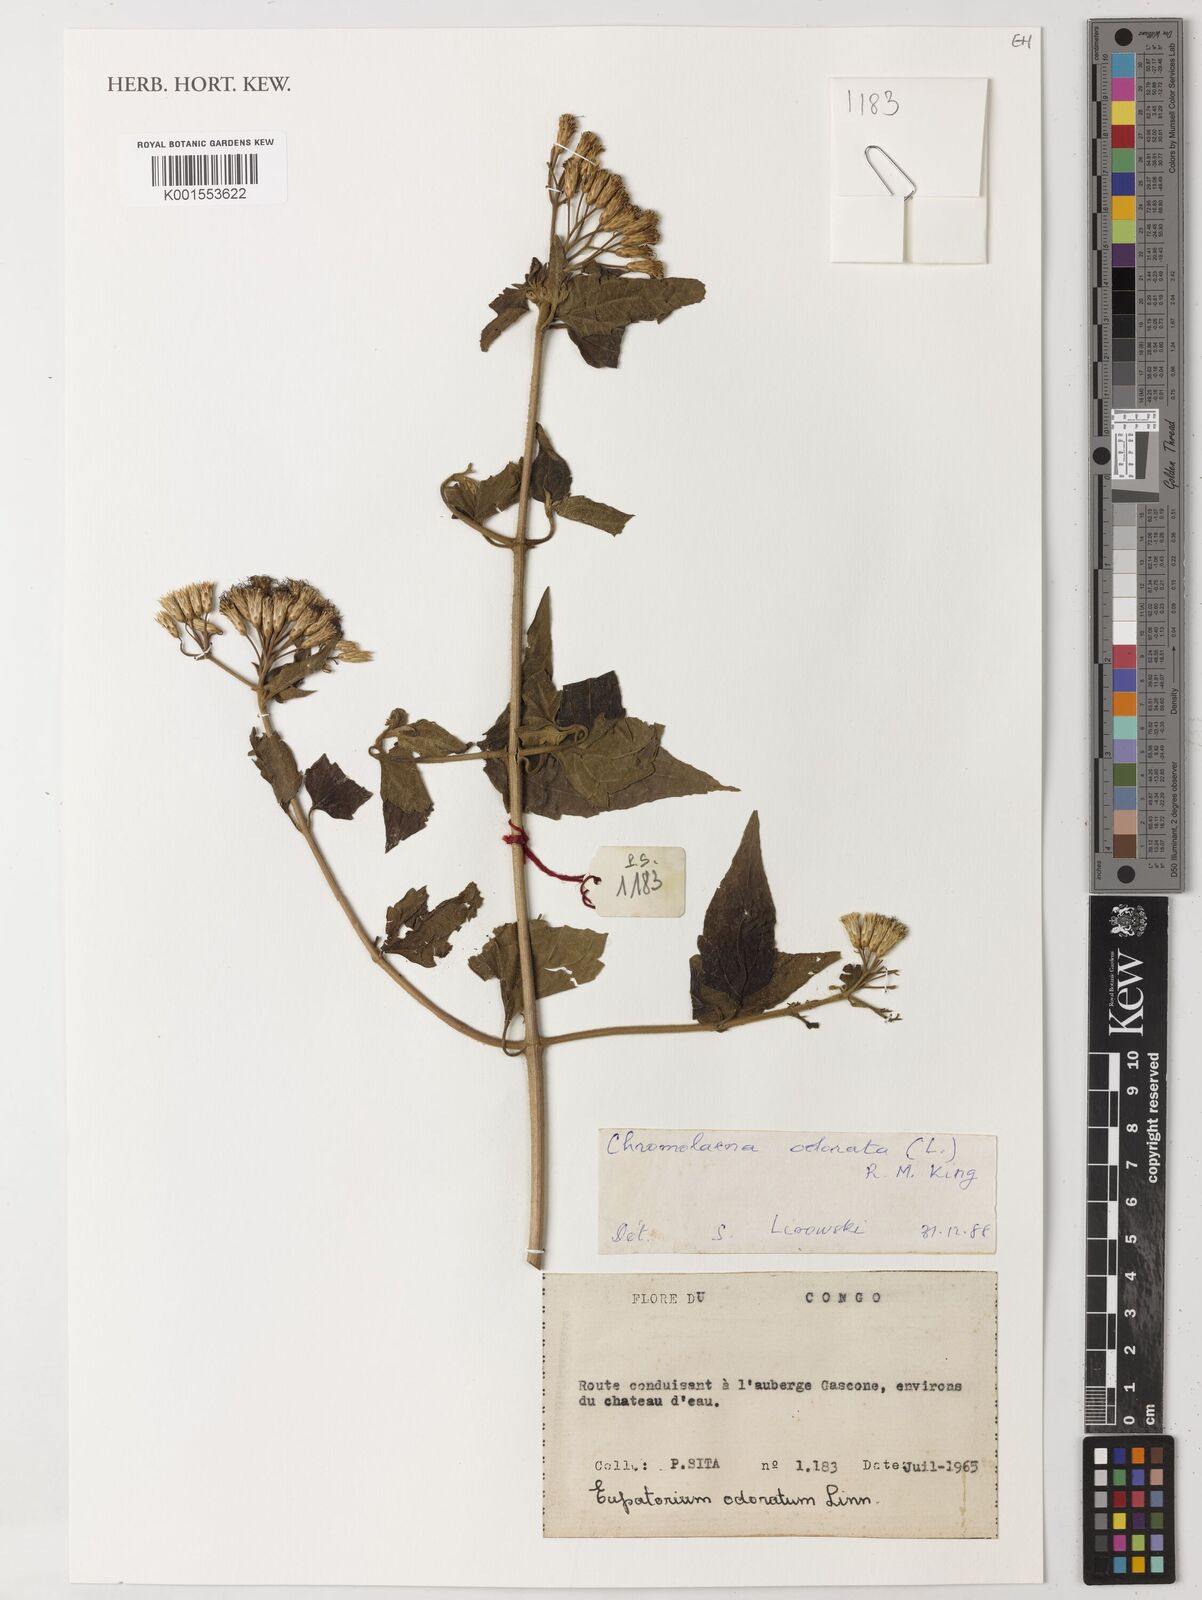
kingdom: Plantae
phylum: Tracheophyta
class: Magnoliopsida
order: Asterales
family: Asteraceae
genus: Chromolaena
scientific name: Chromolaena odorata
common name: Siamweed
